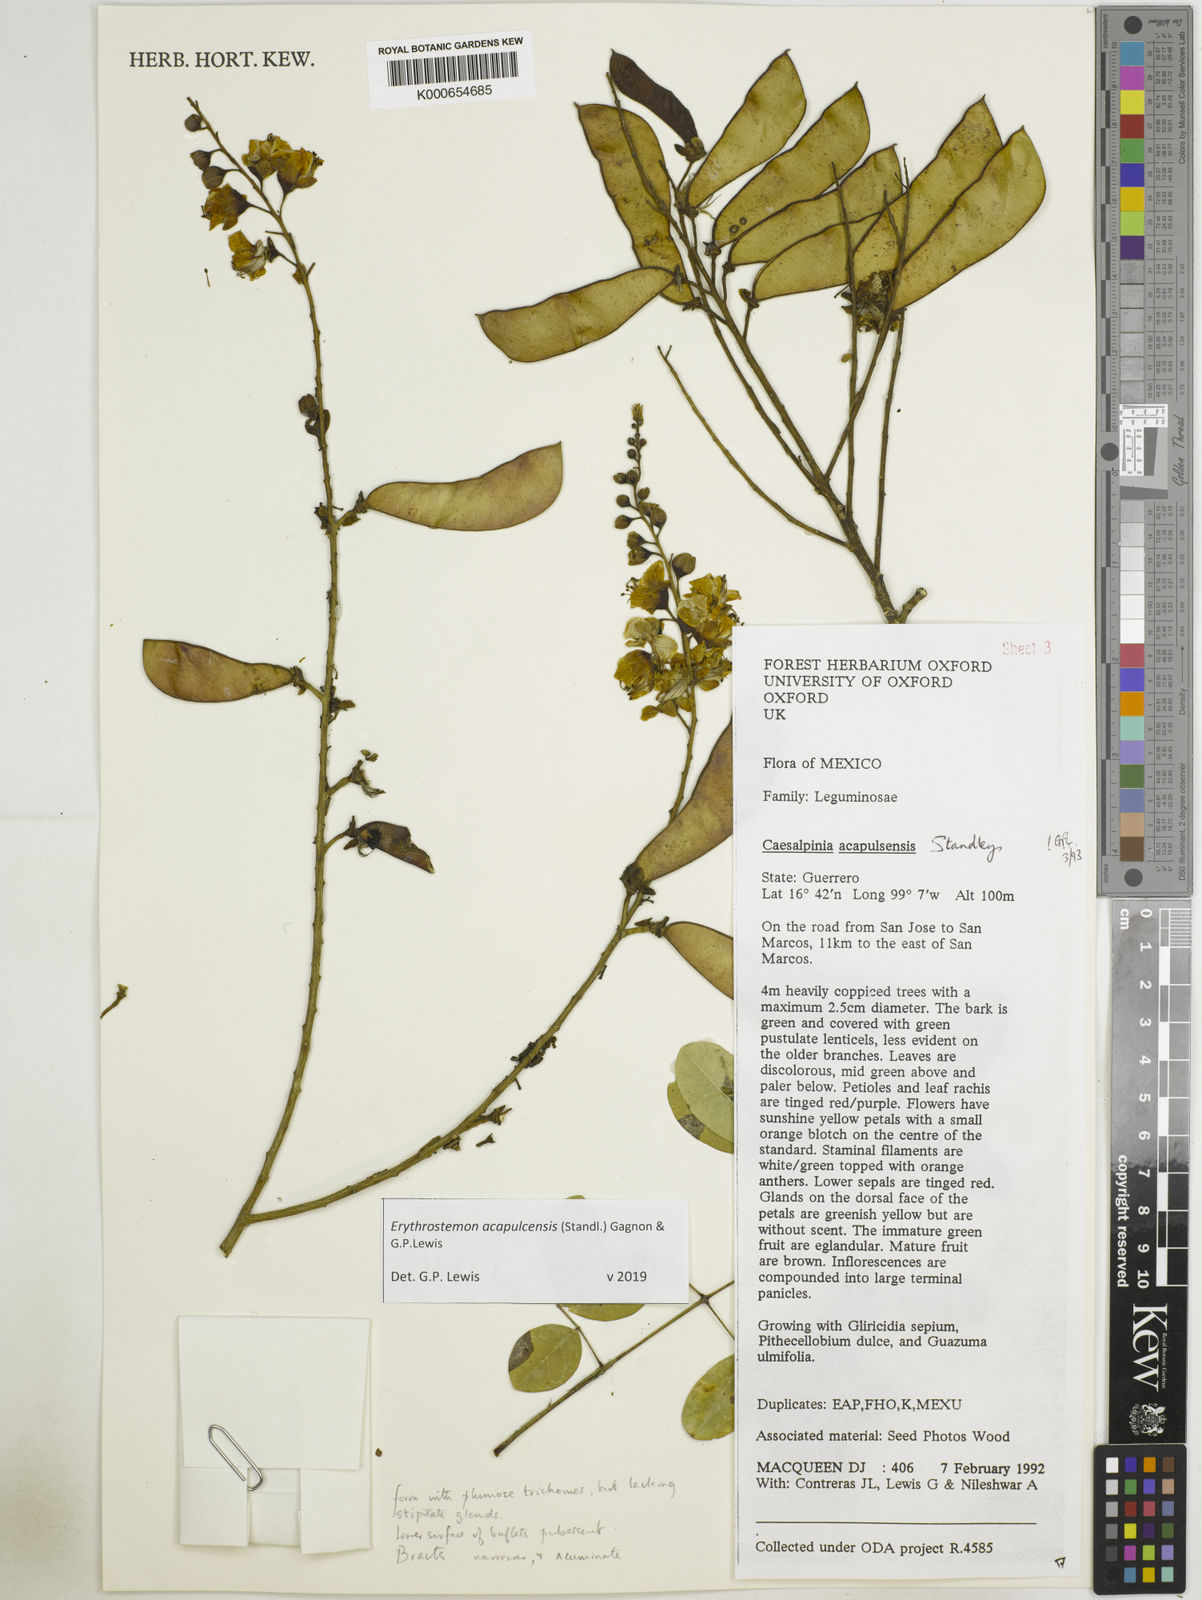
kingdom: Plantae
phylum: Tracheophyta
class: Magnoliopsida
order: Fabales
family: Fabaceae
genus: Erythrostemon
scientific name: Erythrostemon acapulcensis
